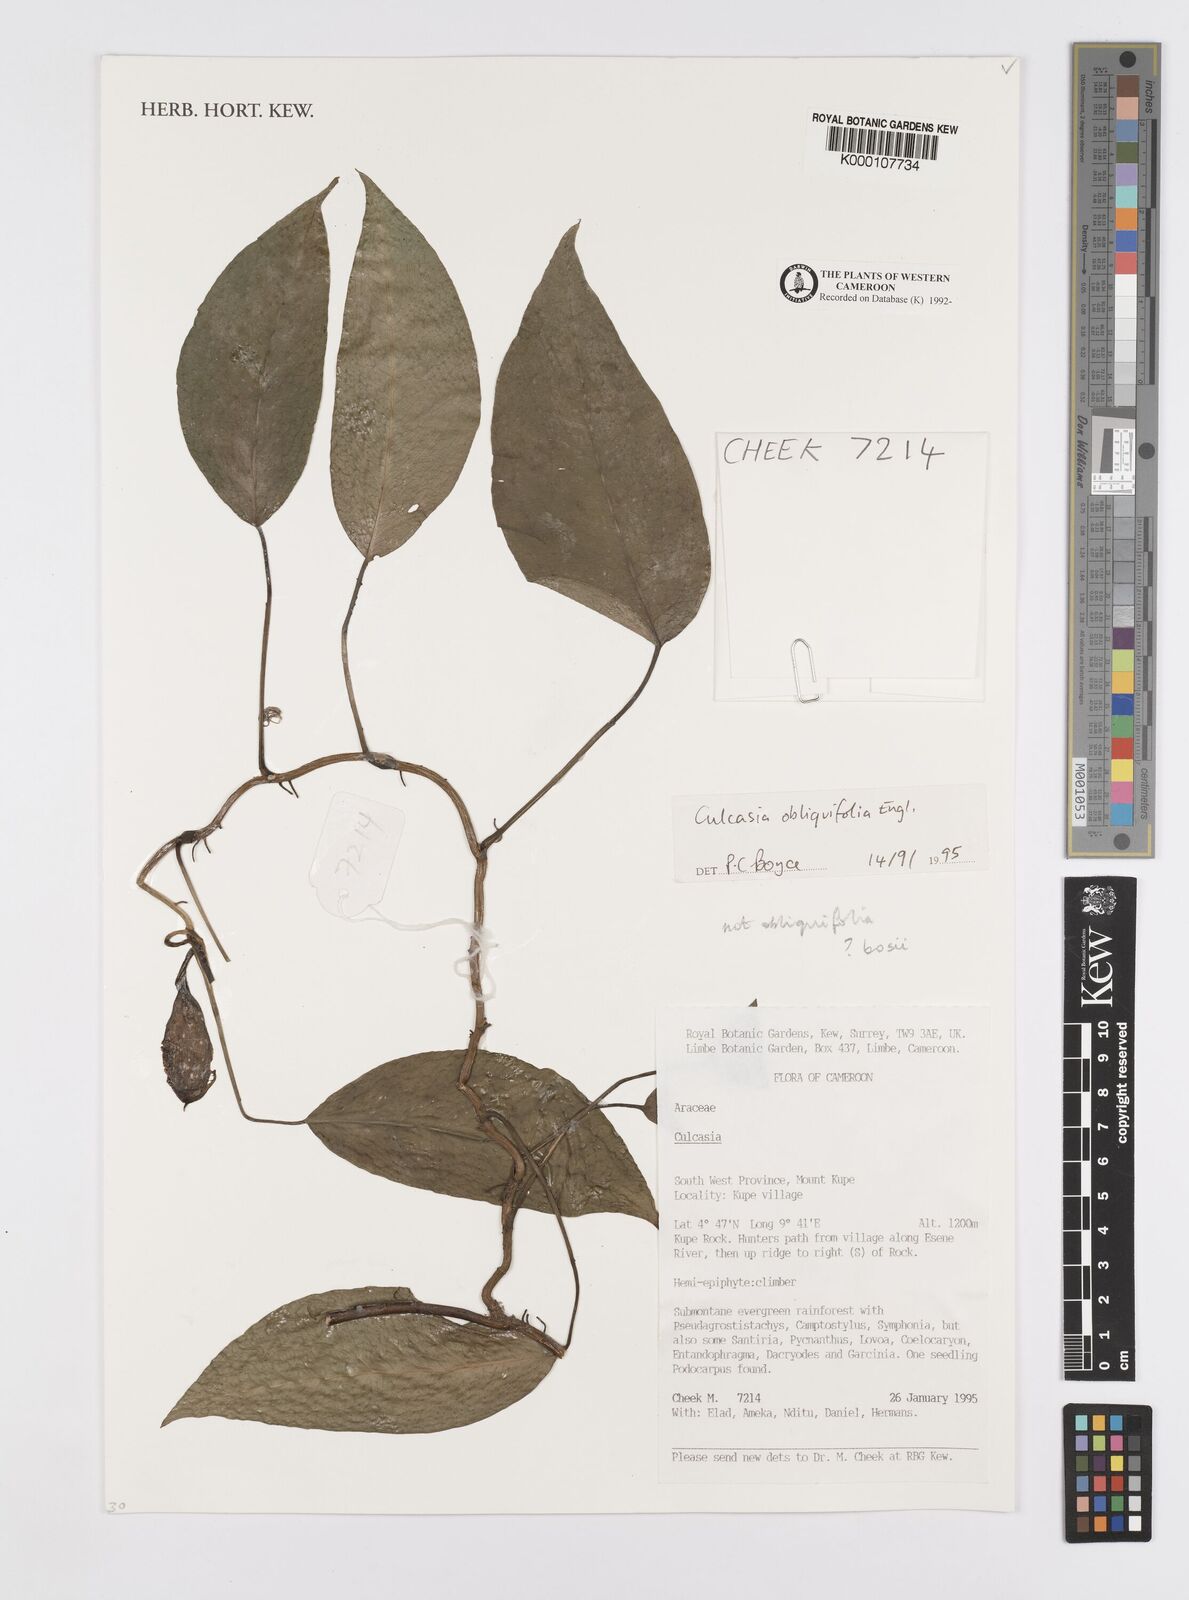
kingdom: Plantae
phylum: Tracheophyta
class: Liliopsida
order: Alismatales
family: Araceae
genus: Culcasia
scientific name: Culcasia obliquifolia
